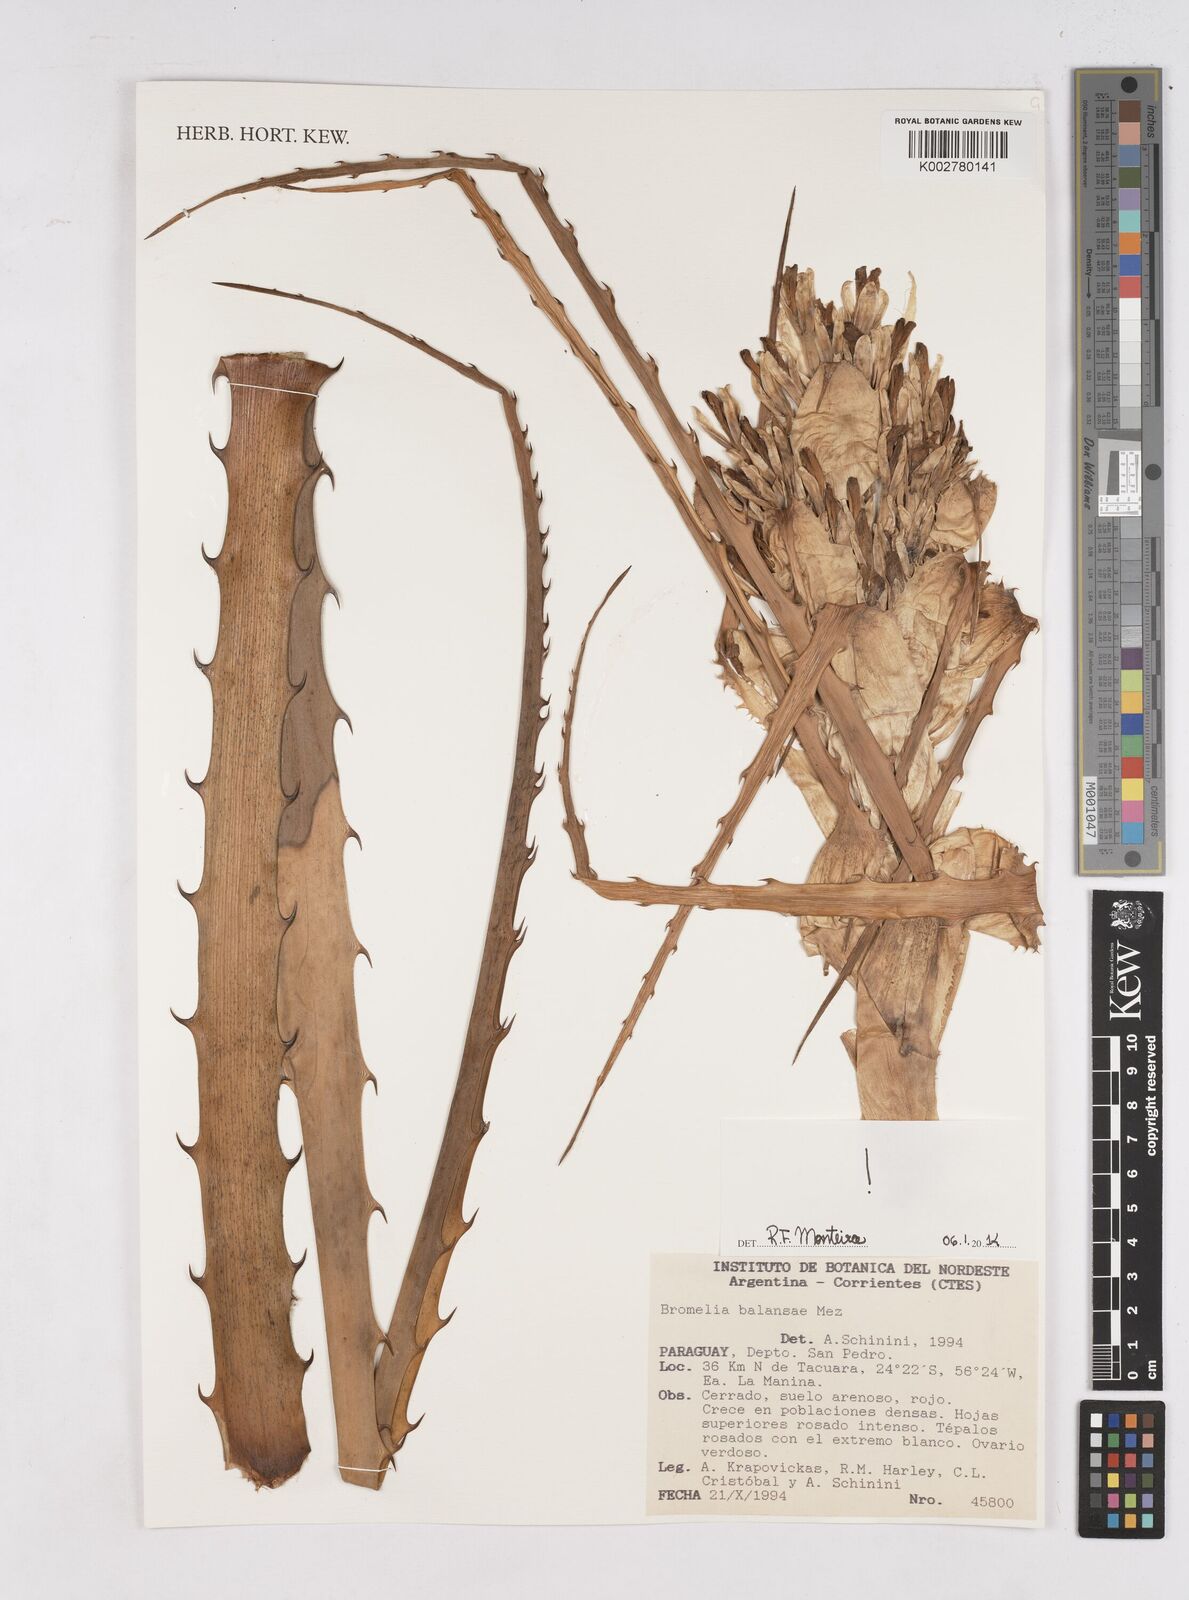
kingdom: Plantae
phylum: Tracheophyta
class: Liliopsida
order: Poales
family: Bromeliaceae
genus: Bromelia
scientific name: Bromelia balansae
